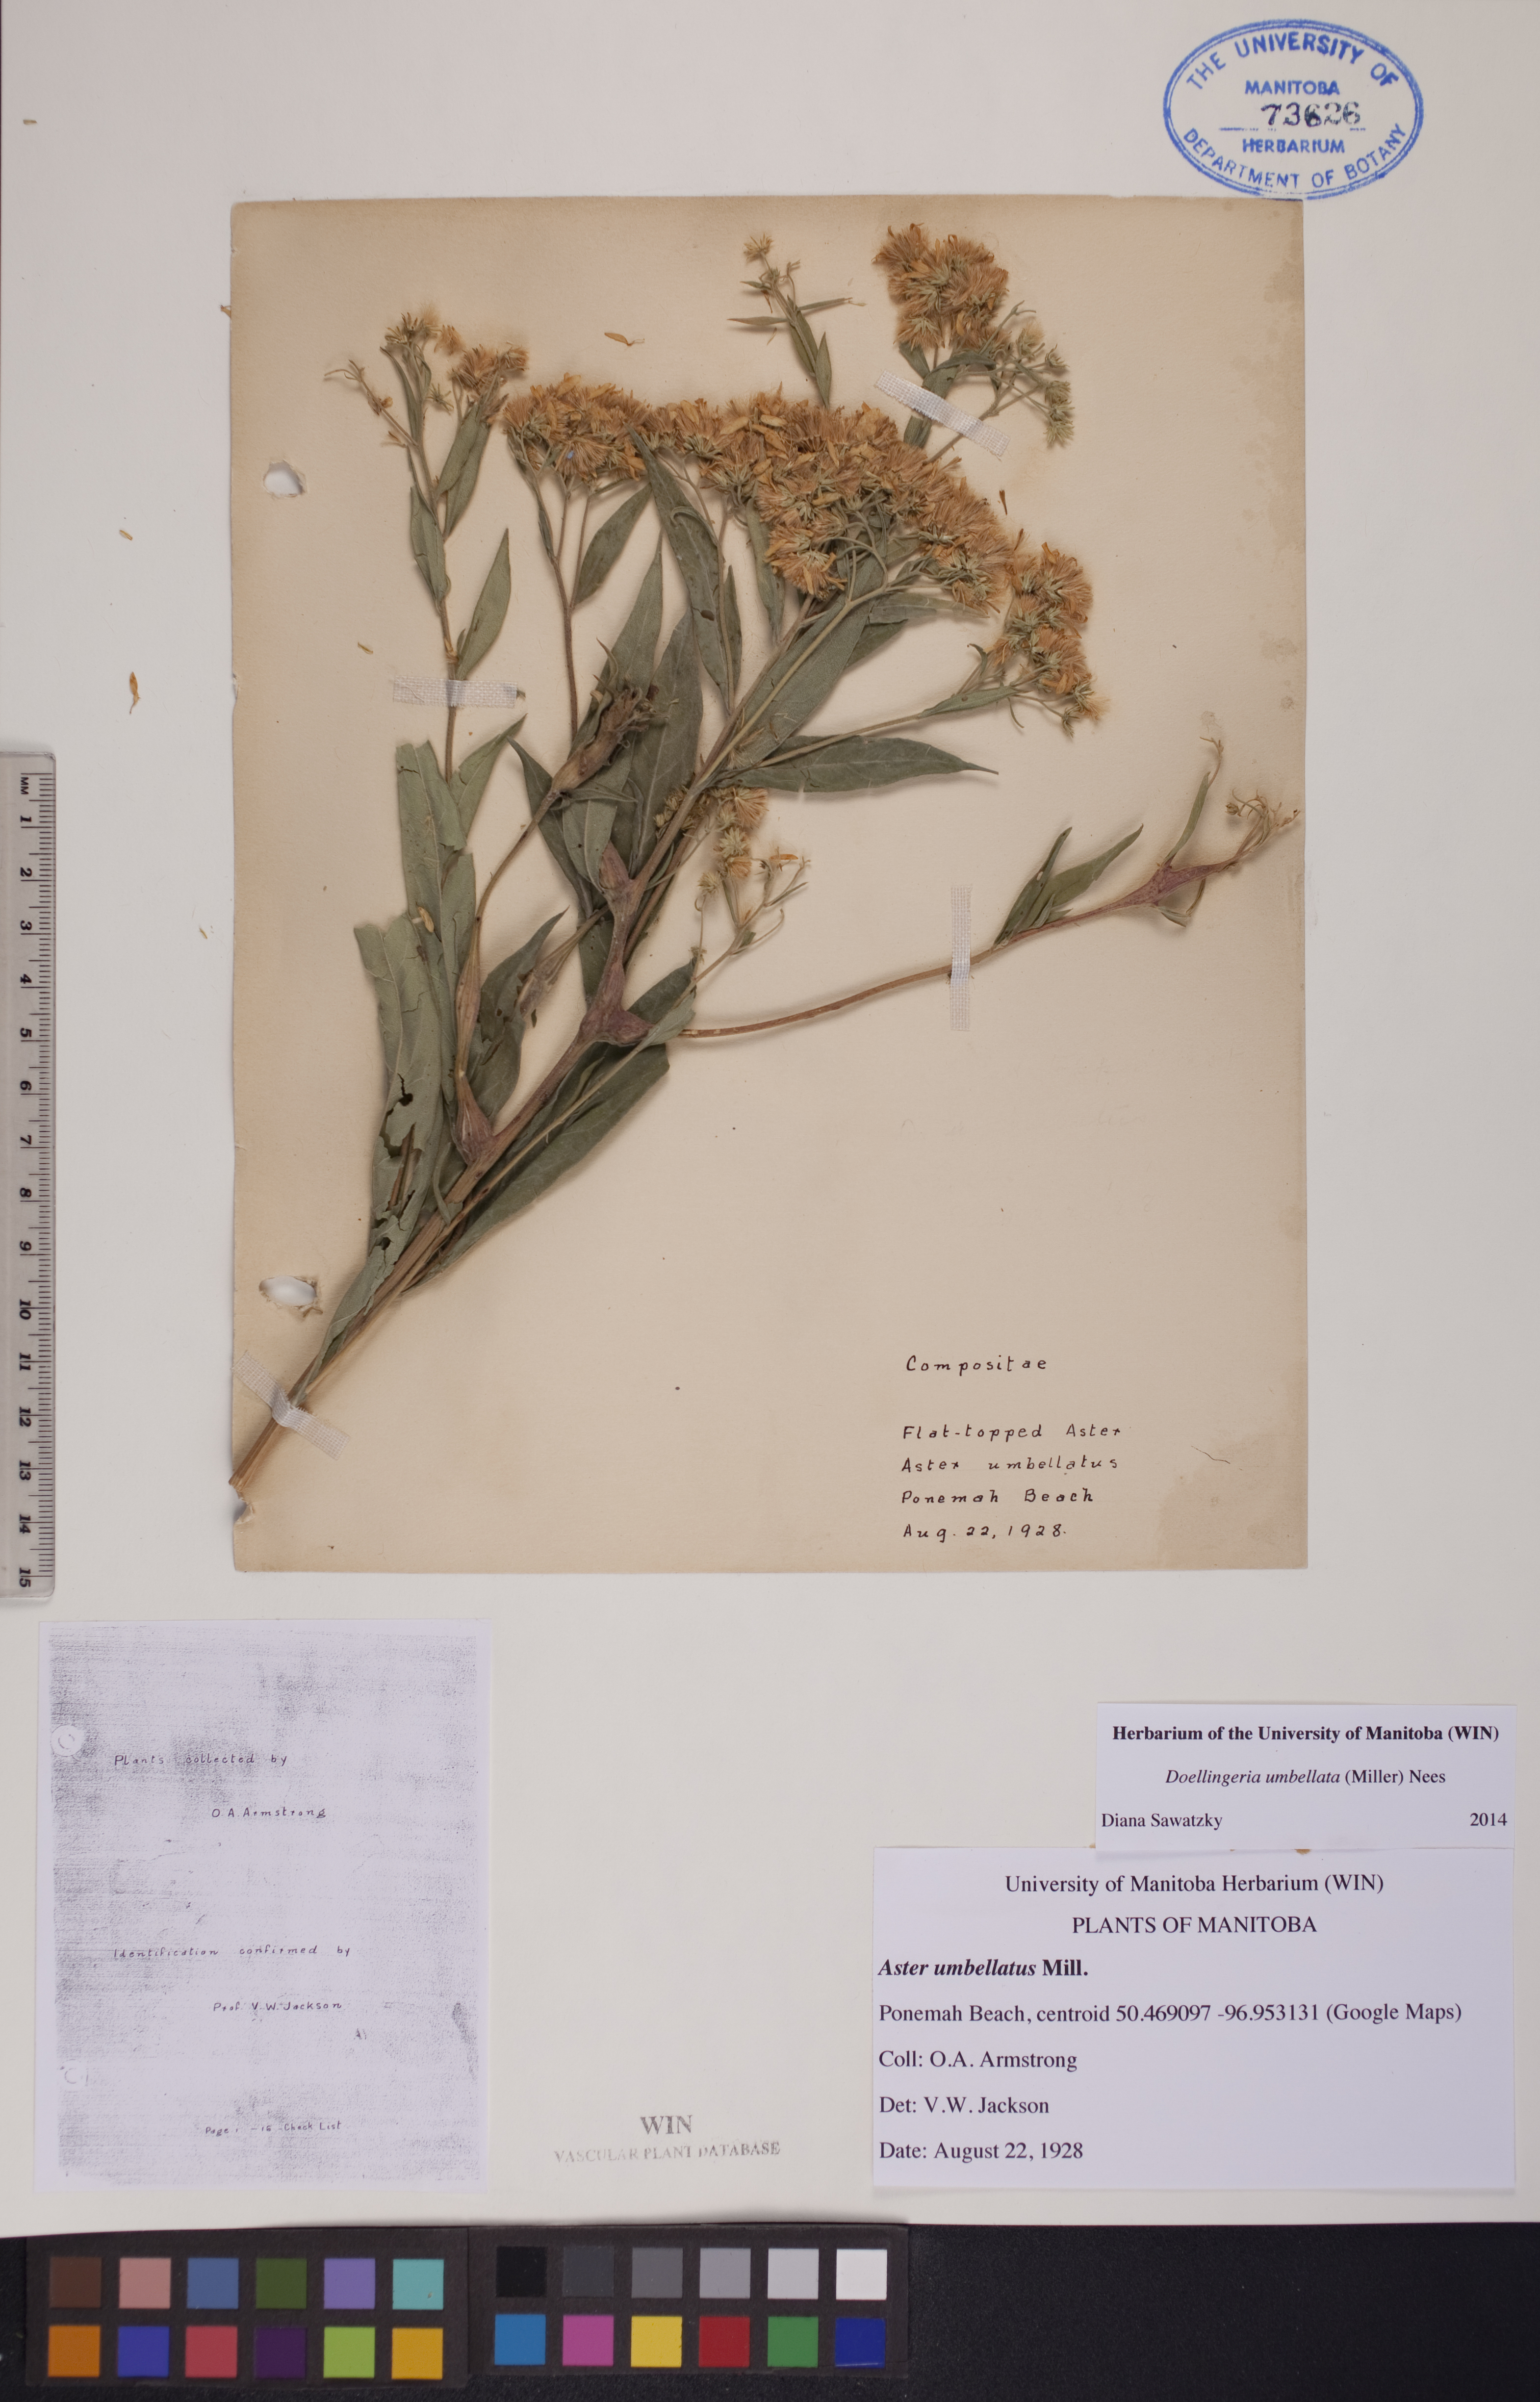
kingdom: Plantae
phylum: Tracheophyta
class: Magnoliopsida
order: Asterales
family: Asteraceae
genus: Doellingeria
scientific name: Doellingeria umbellata
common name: Flat-top white aster
